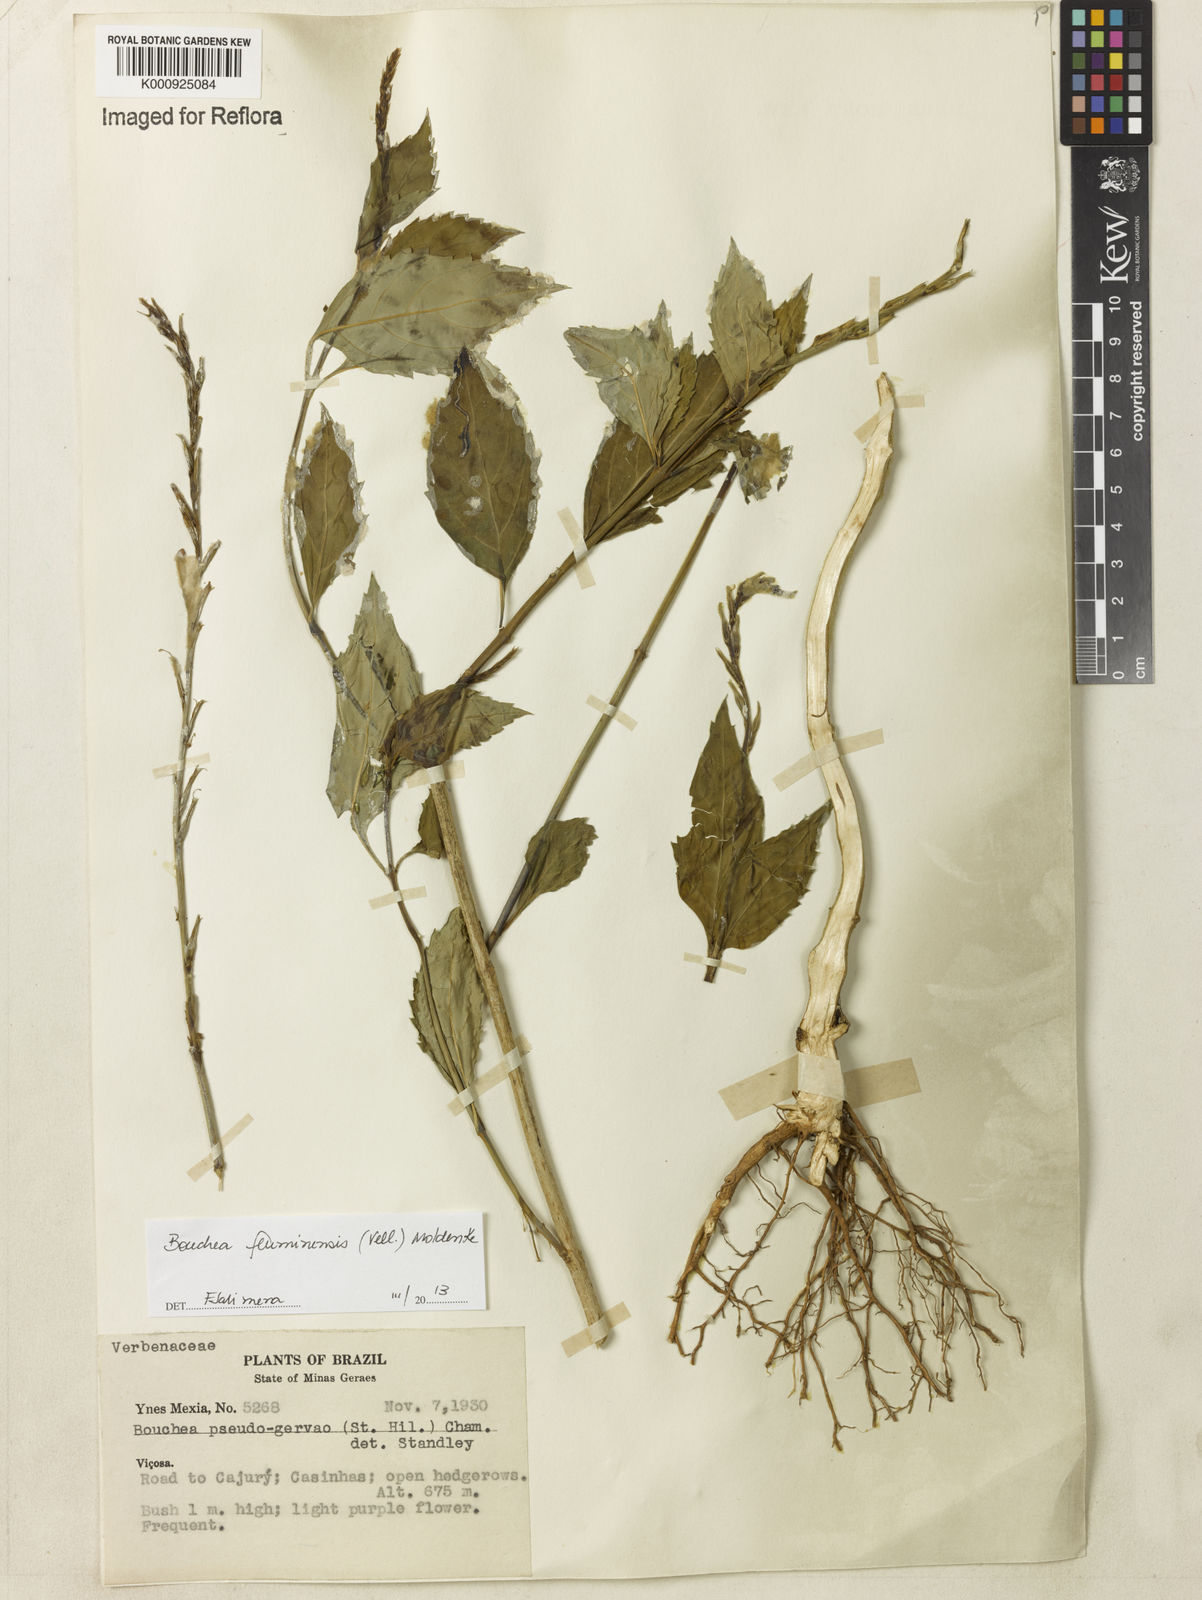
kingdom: Plantae
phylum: Tracheophyta
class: Magnoliopsida
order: Lamiales
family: Verbenaceae
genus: Bouchea
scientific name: Bouchea pseudogervao
